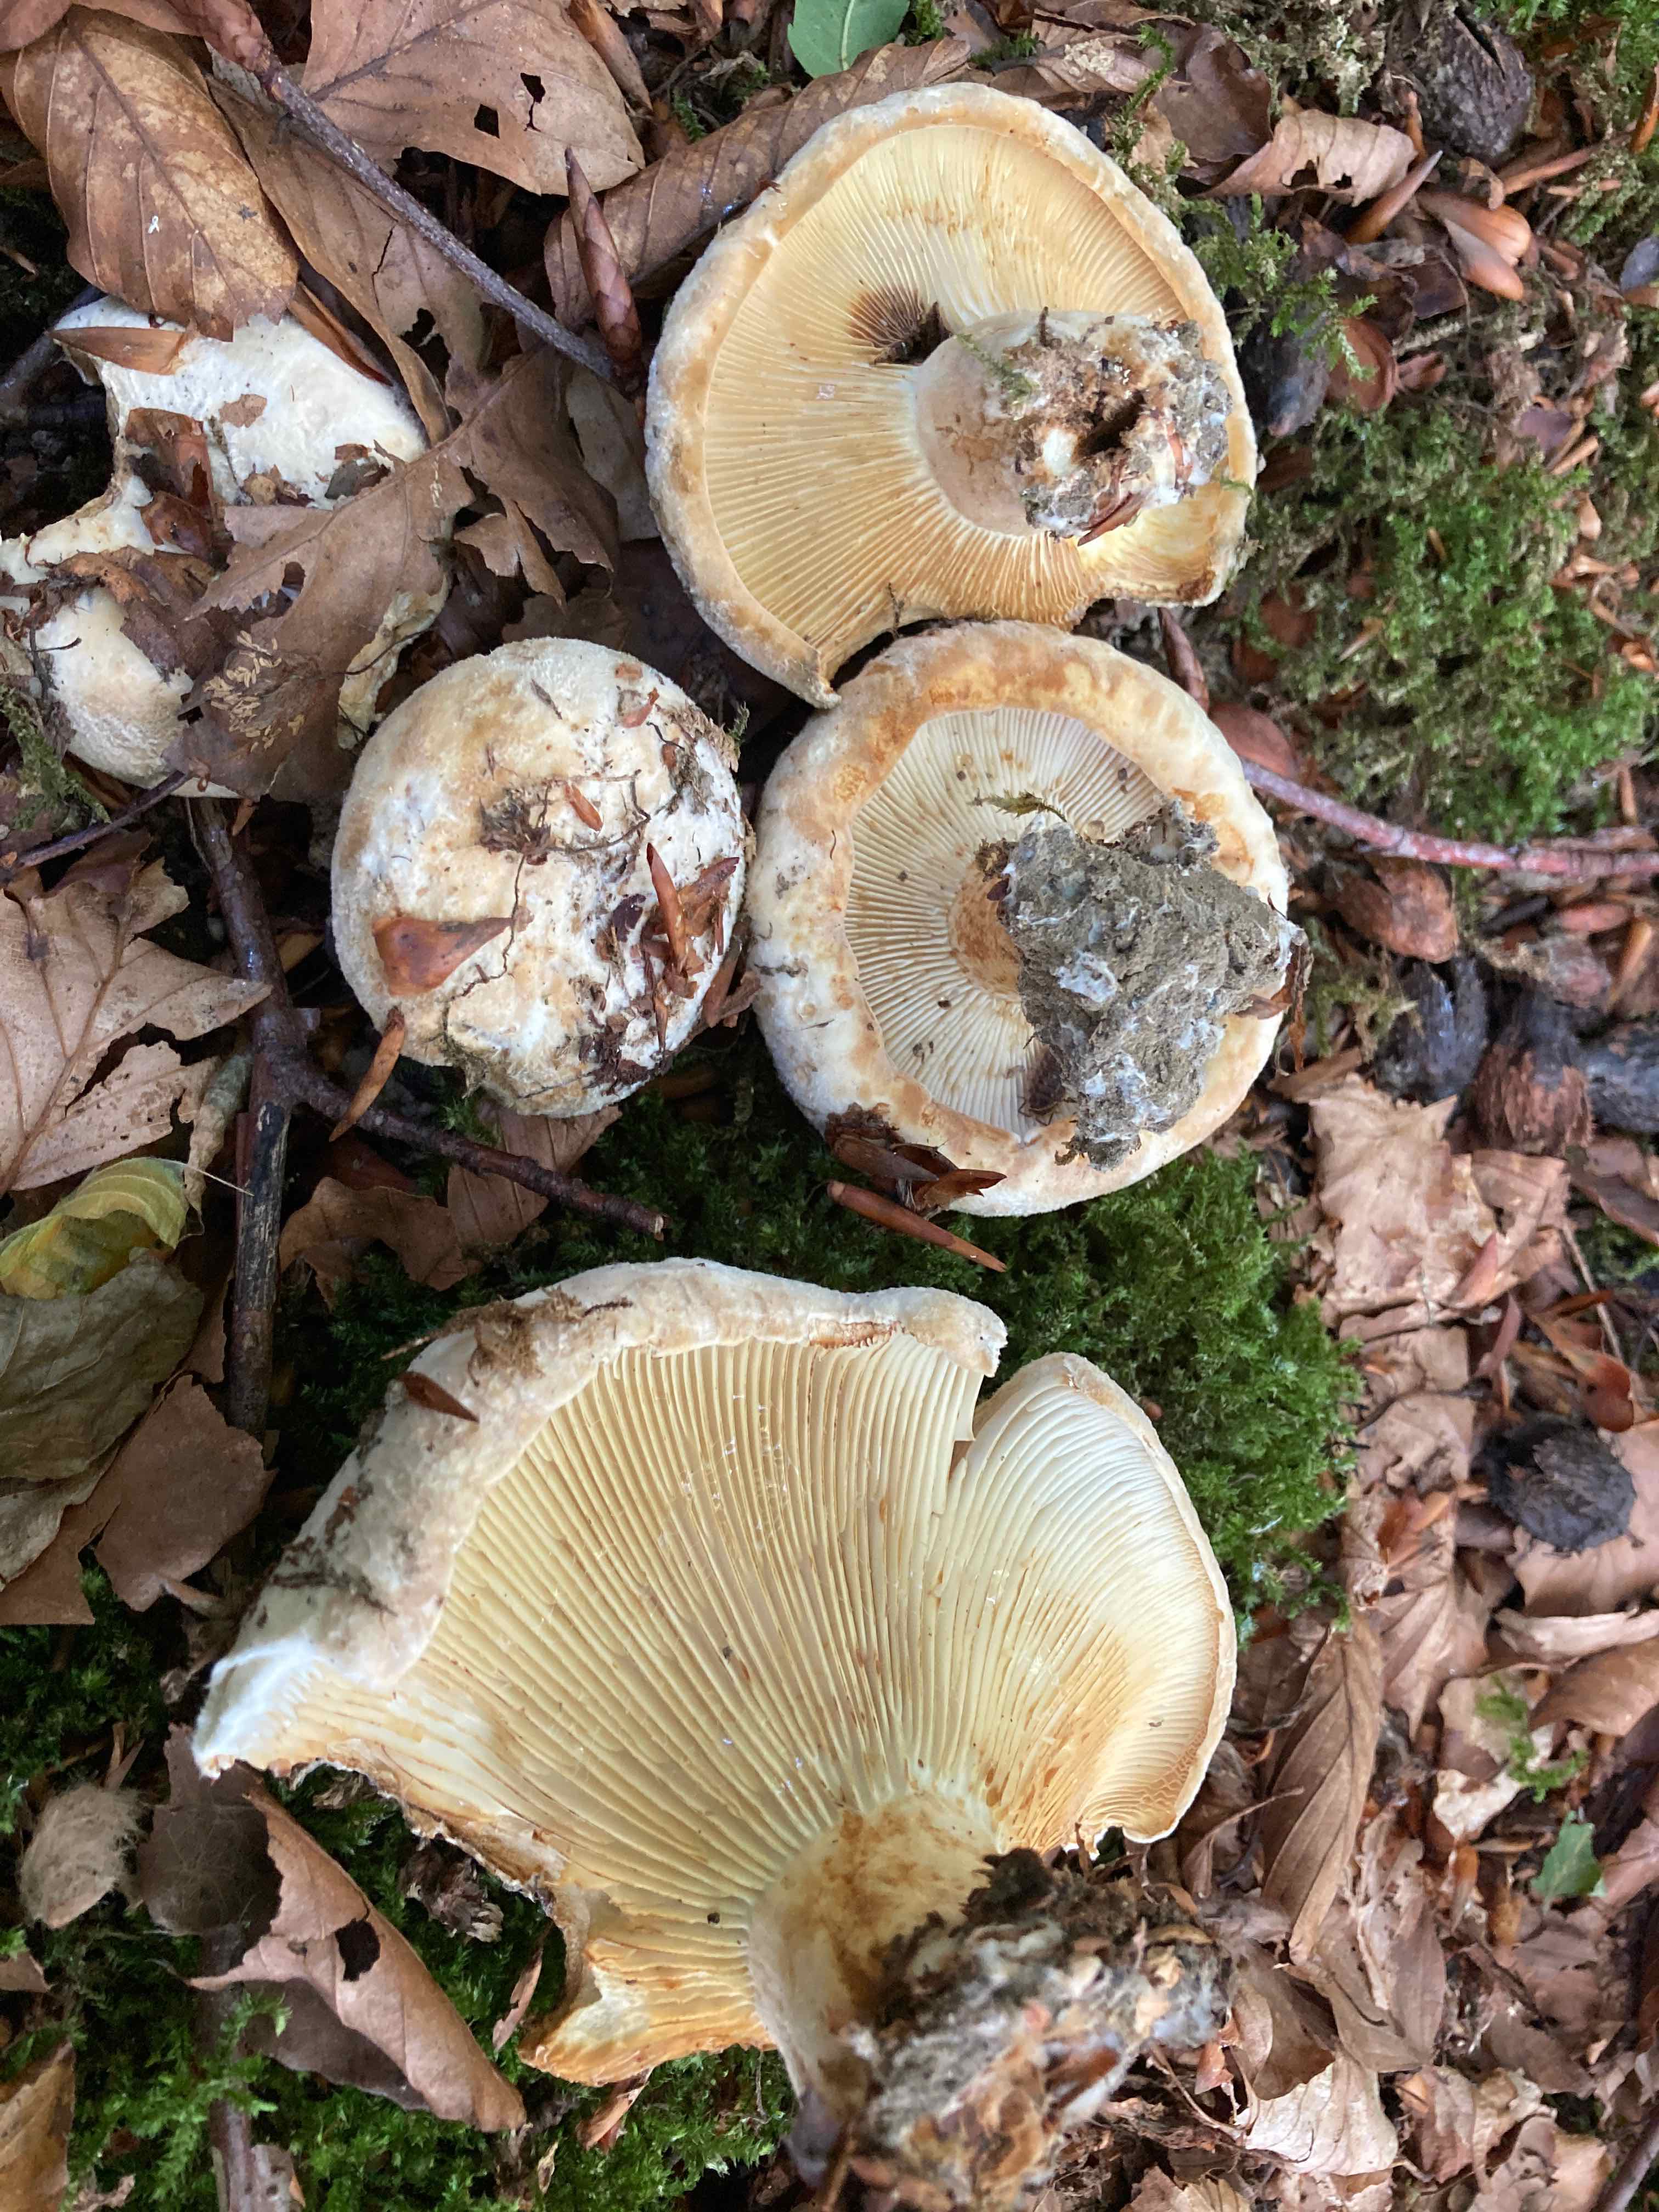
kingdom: Fungi
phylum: Basidiomycota
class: Agaricomycetes
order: Russulales
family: Russulaceae
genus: Lactifluus
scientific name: Lactifluus vellereus
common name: hvidfiltet mælkehat
